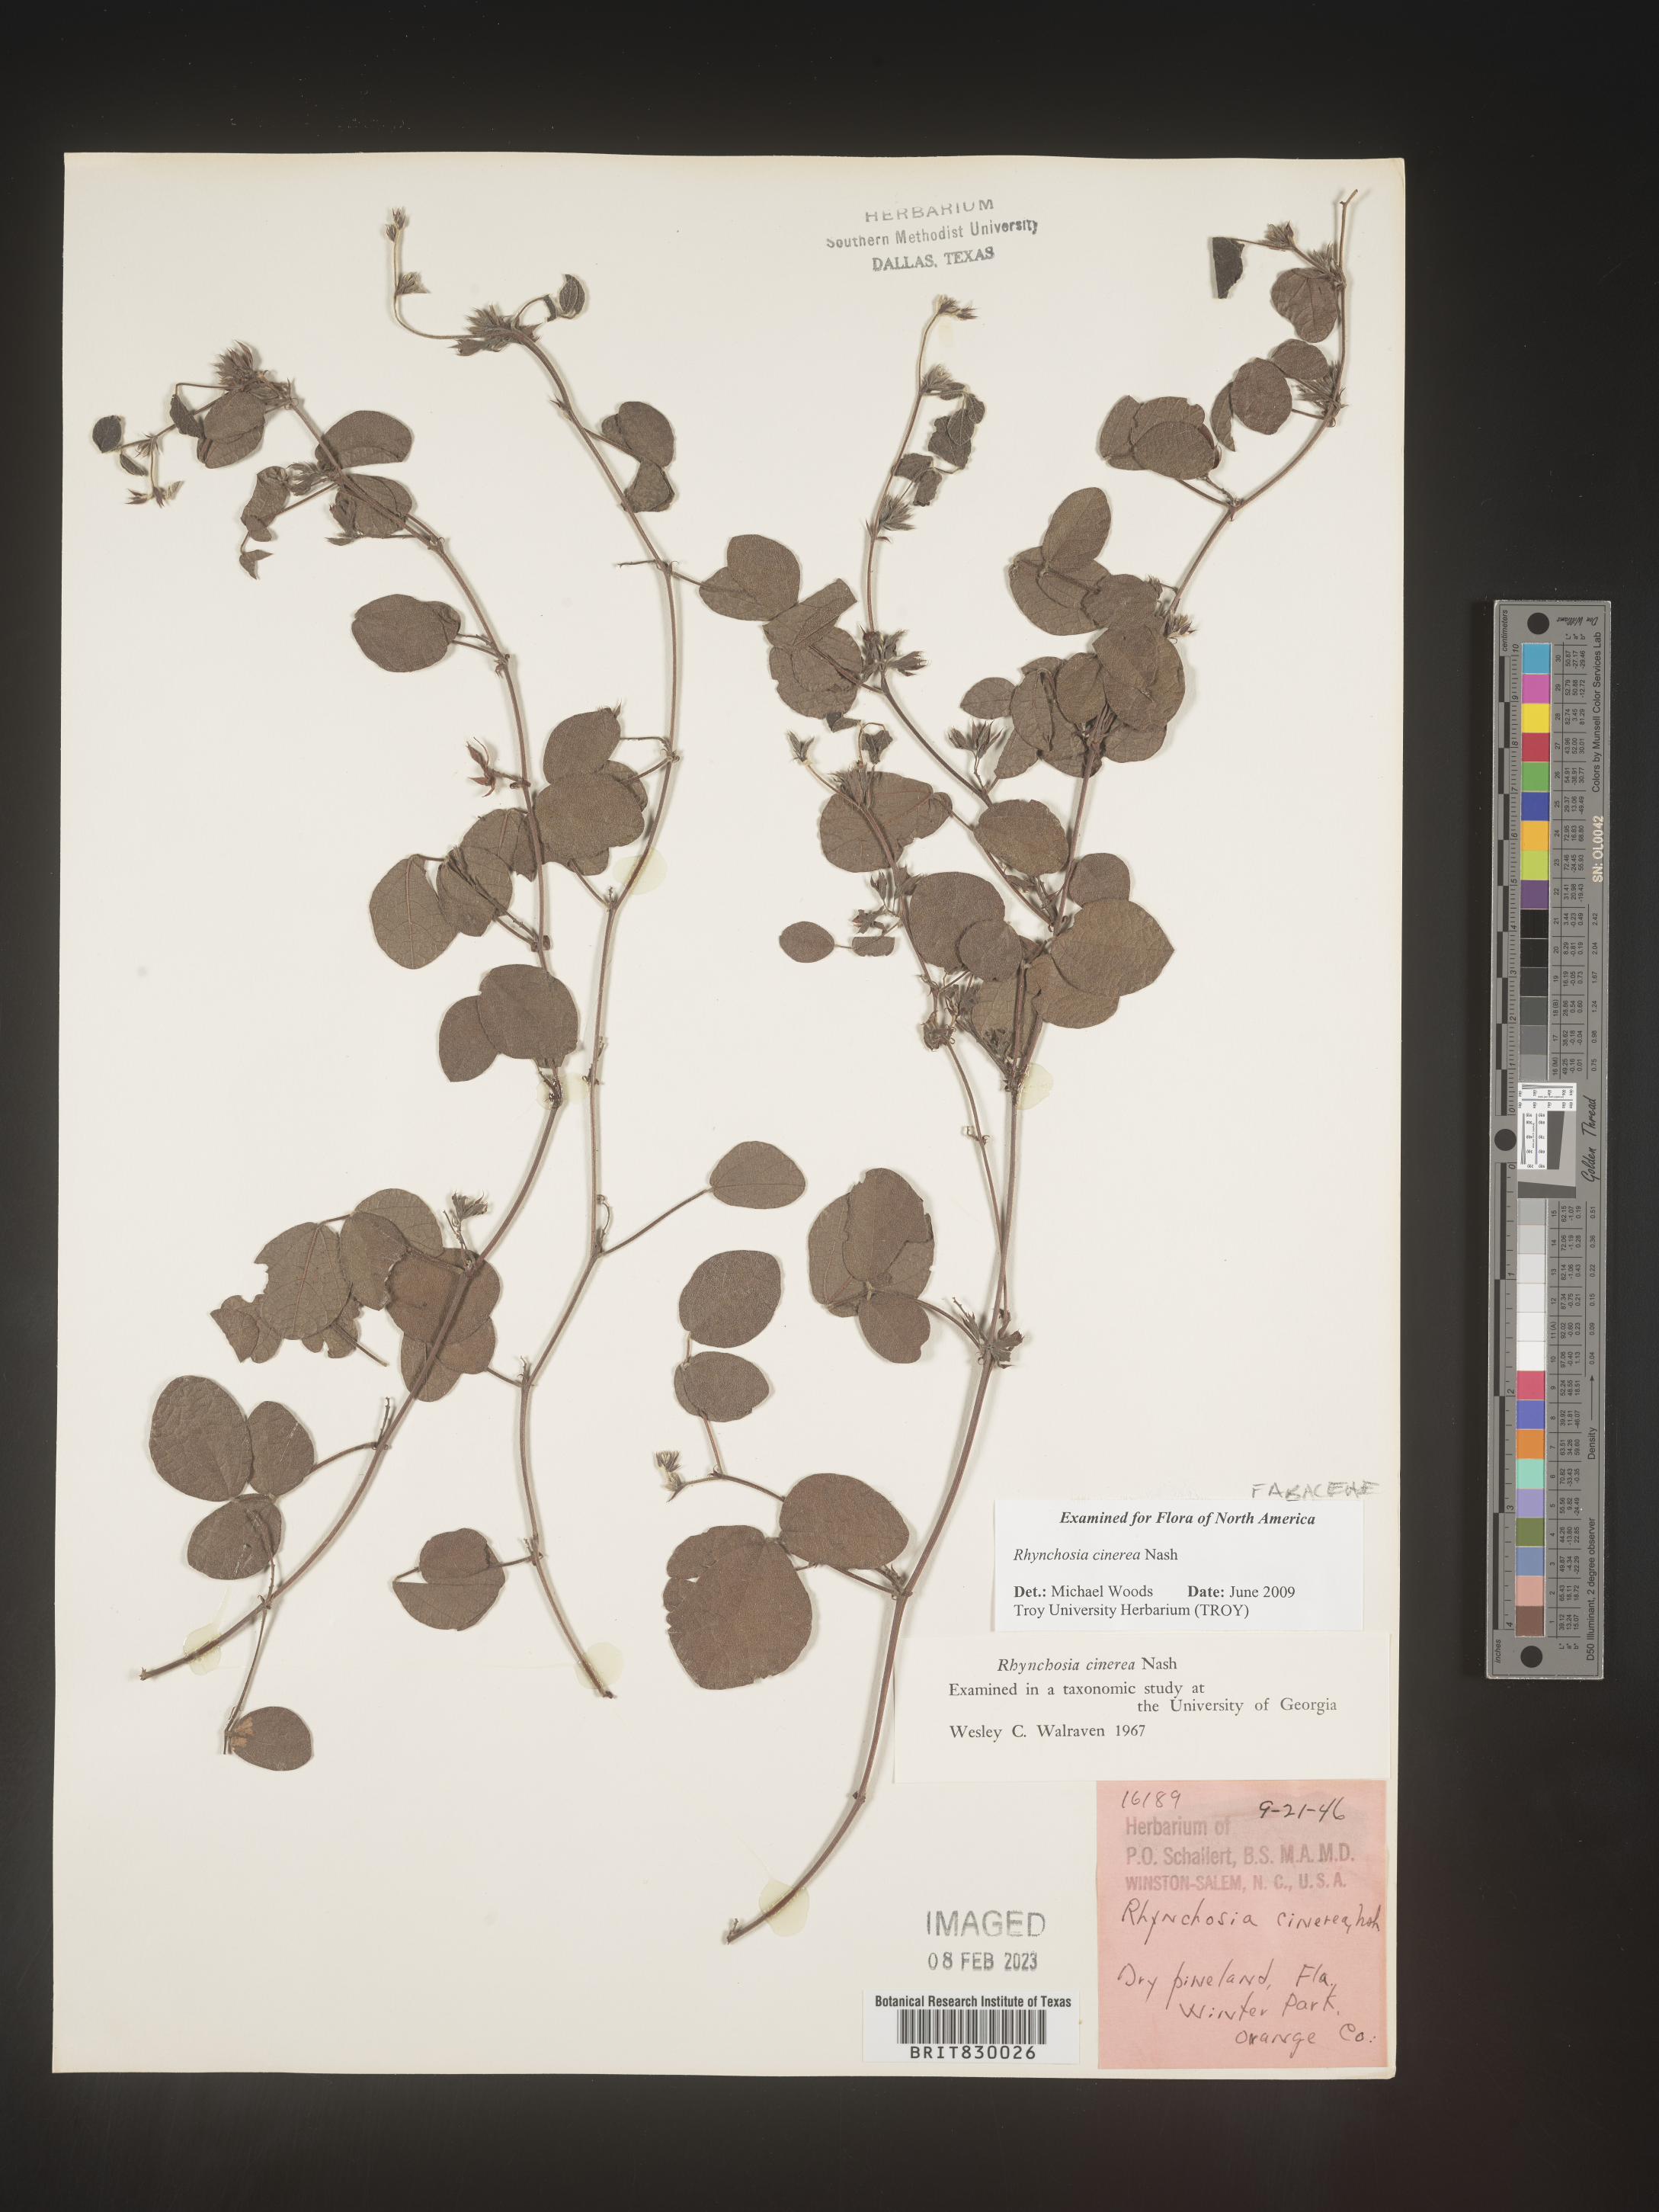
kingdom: Plantae
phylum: Tracheophyta
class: Magnoliopsida
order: Fabales
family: Fabaceae
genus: Rhynchosia
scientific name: Rhynchosia
